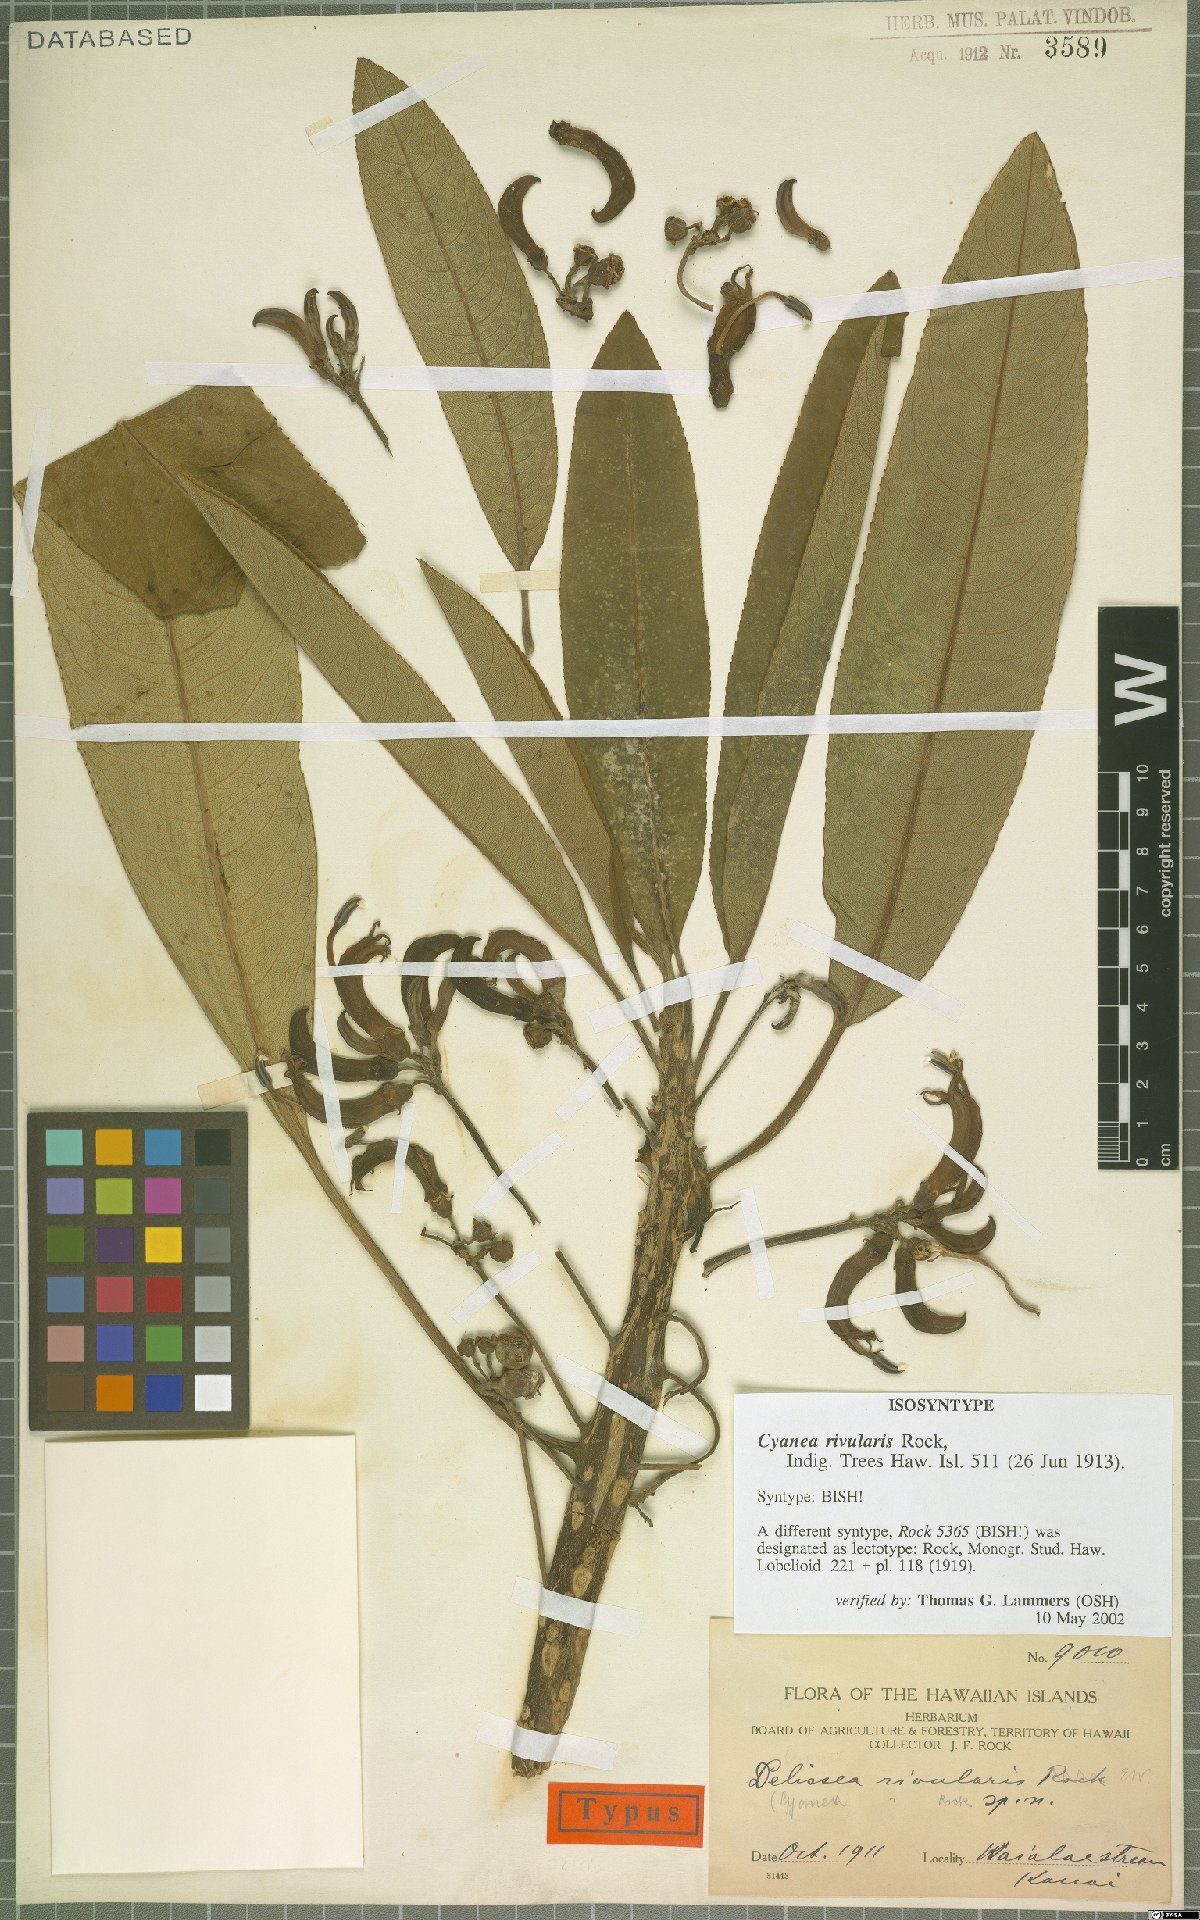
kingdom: Plantae
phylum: Tracheophyta
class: Magnoliopsida
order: Asterales
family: Campanulaceae
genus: Cyanea
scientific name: Cyanea rivularis
